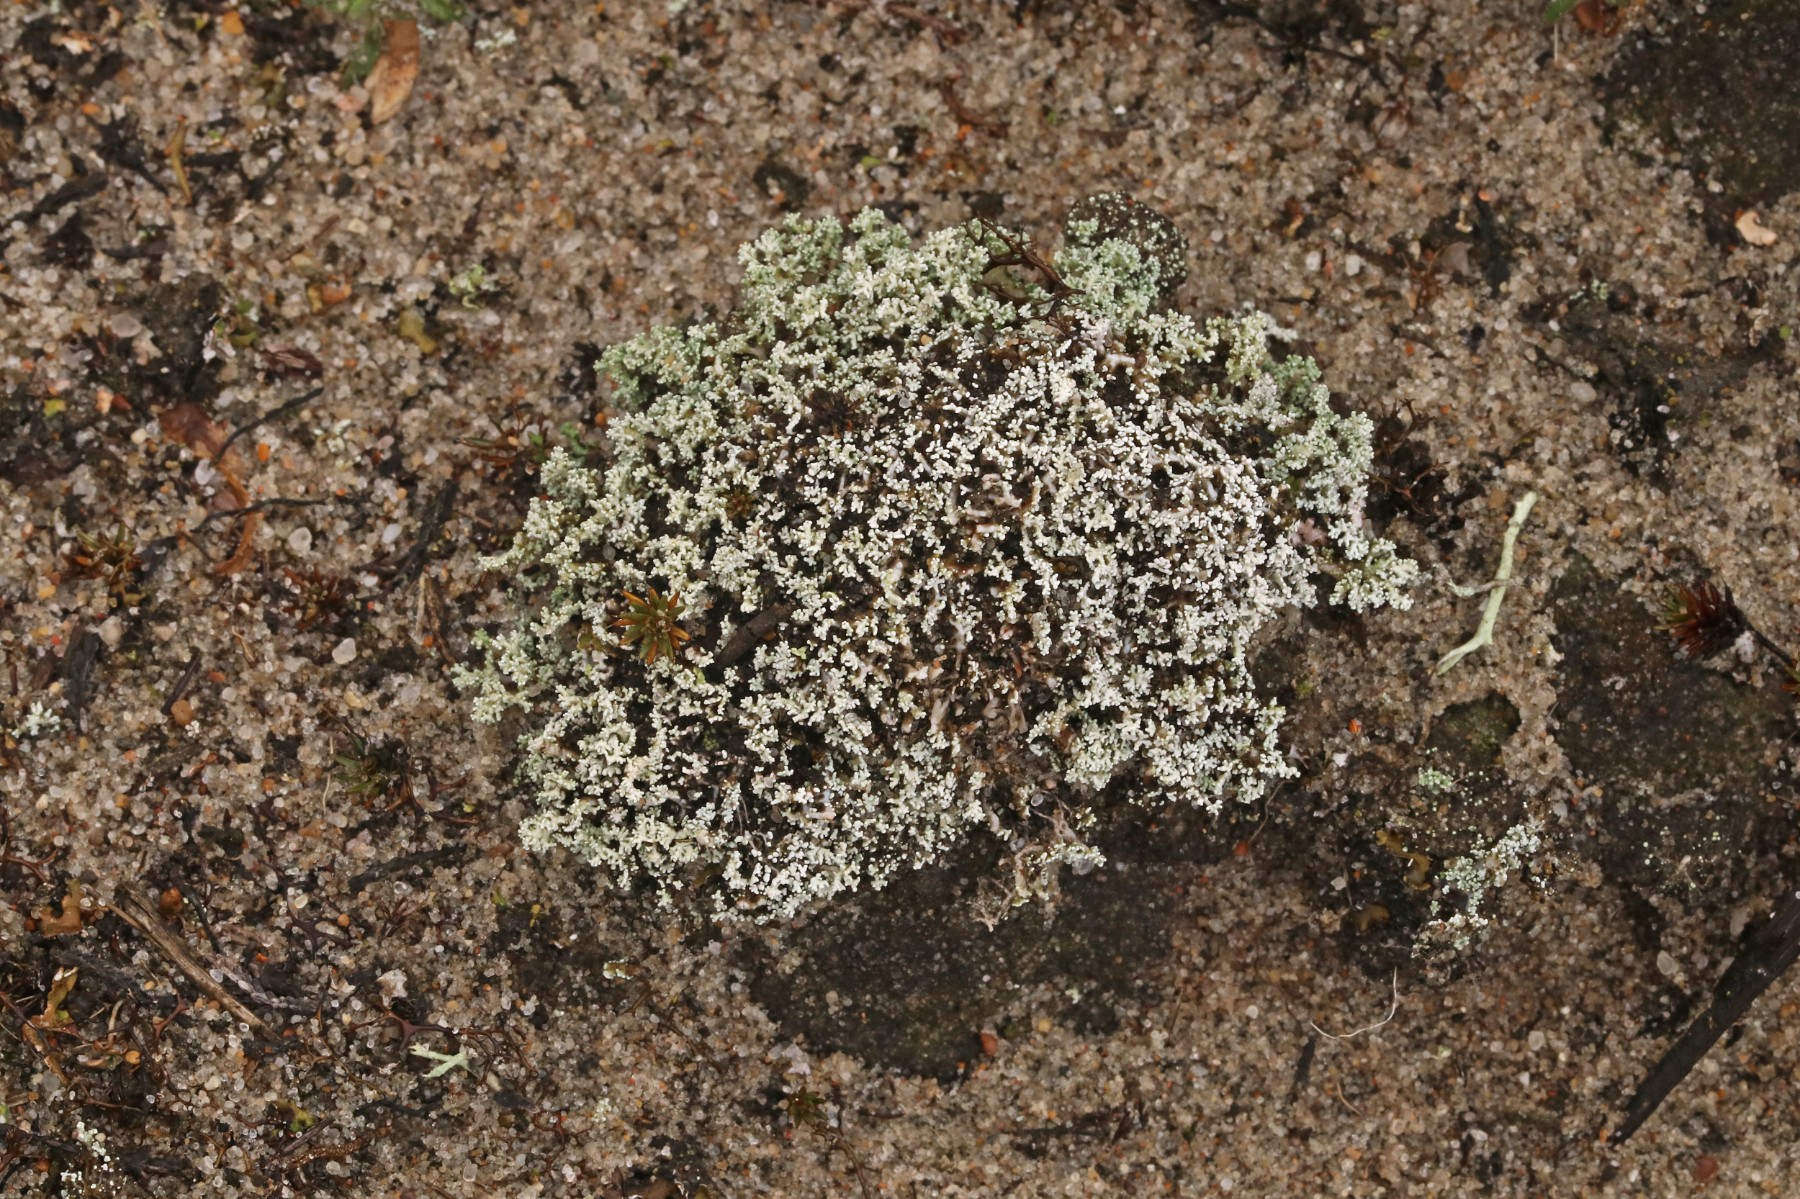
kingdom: Fungi
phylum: Ascomycota
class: Lecanoromycetes
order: Lecanorales
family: Stereocaulaceae
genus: Stereocaulon
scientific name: Stereocaulon condensatum
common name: lav korallav
